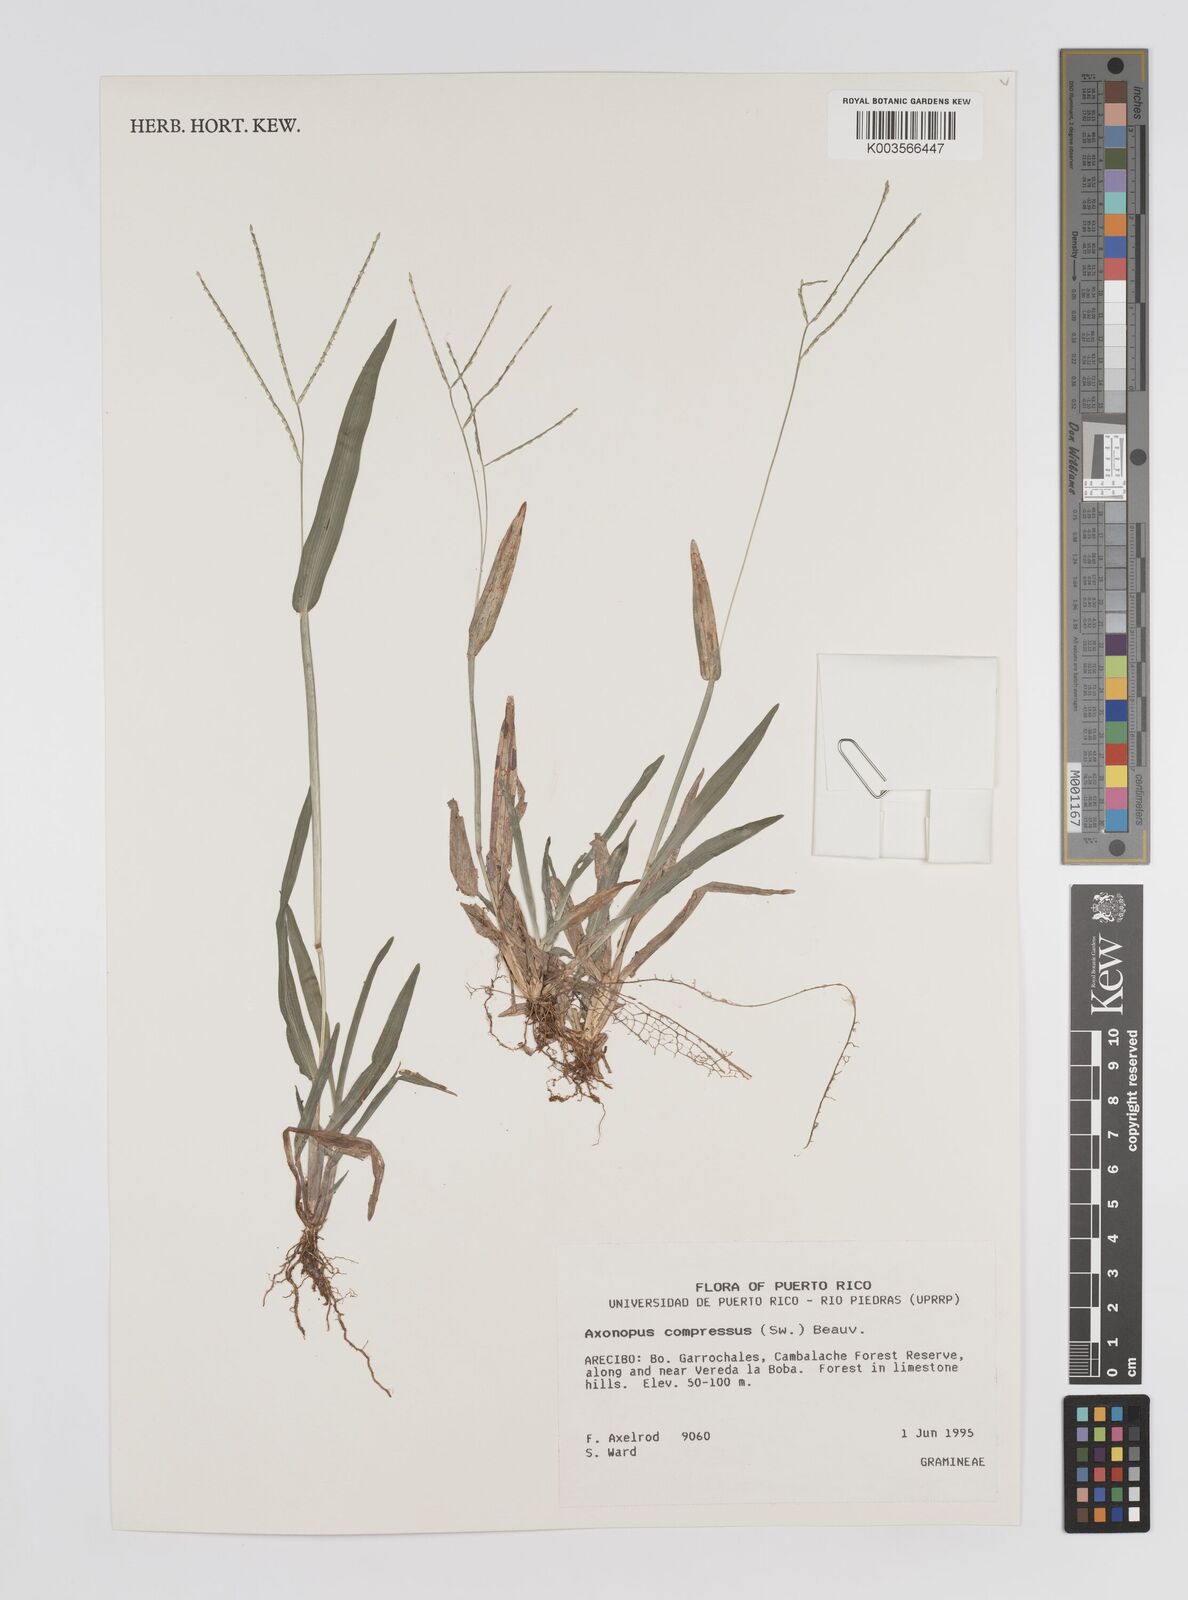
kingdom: Plantae
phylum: Tracheophyta
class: Liliopsida
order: Poales
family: Poaceae
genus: Axonopus
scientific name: Axonopus compressus
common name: American carpet grass
